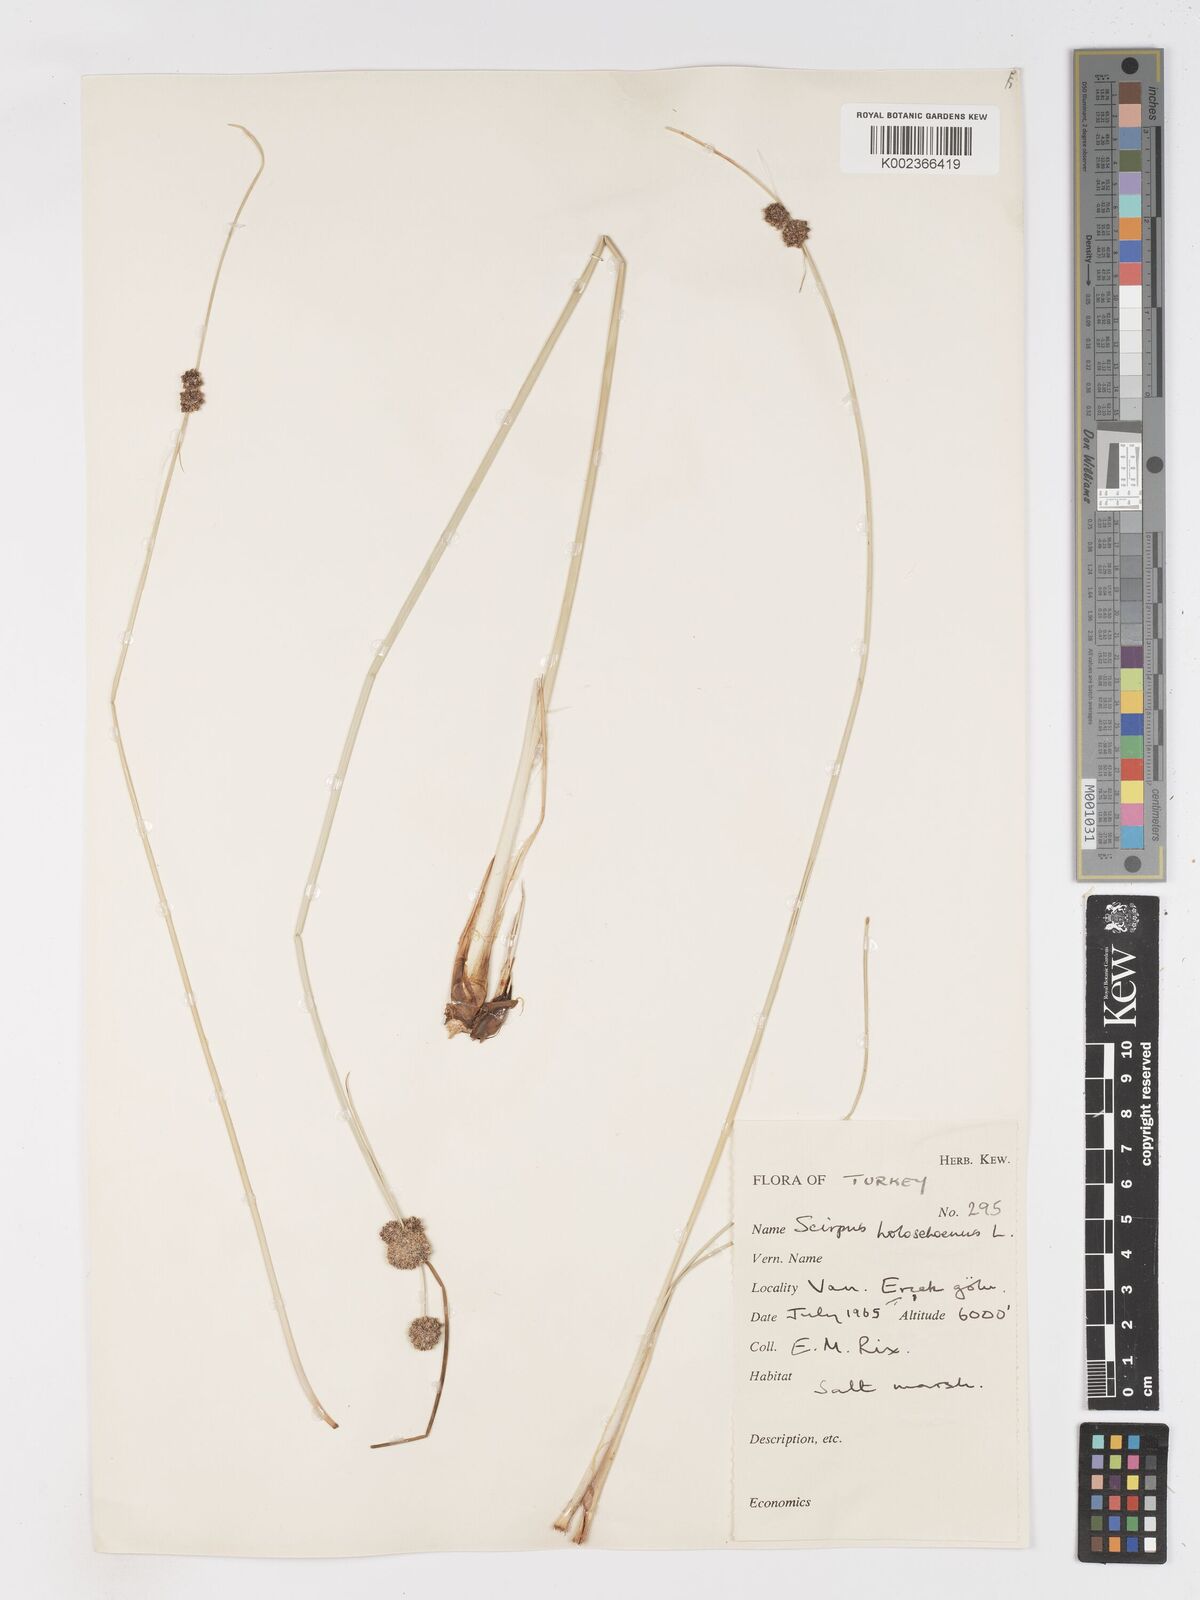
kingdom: Plantae
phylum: Tracheophyta
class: Liliopsida
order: Poales
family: Cyperaceae
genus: Scirpoides
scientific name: Scirpoides holoschoenus
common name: Round-headed club-rush
